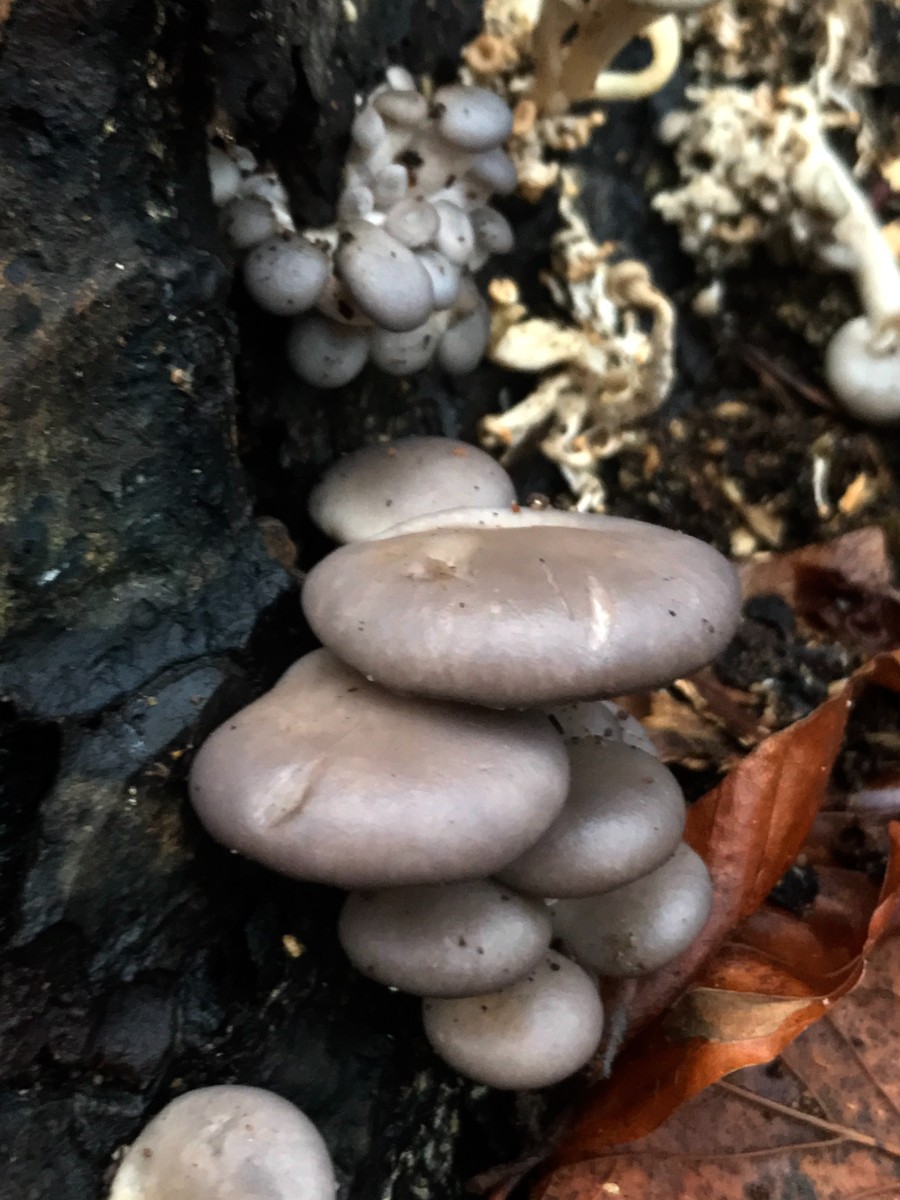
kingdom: Fungi
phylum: Basidiomycota
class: Agaricomycetes
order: Agaricales
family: Pleurotaceae
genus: Pleurotus
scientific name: Pleurotus ostreatus
